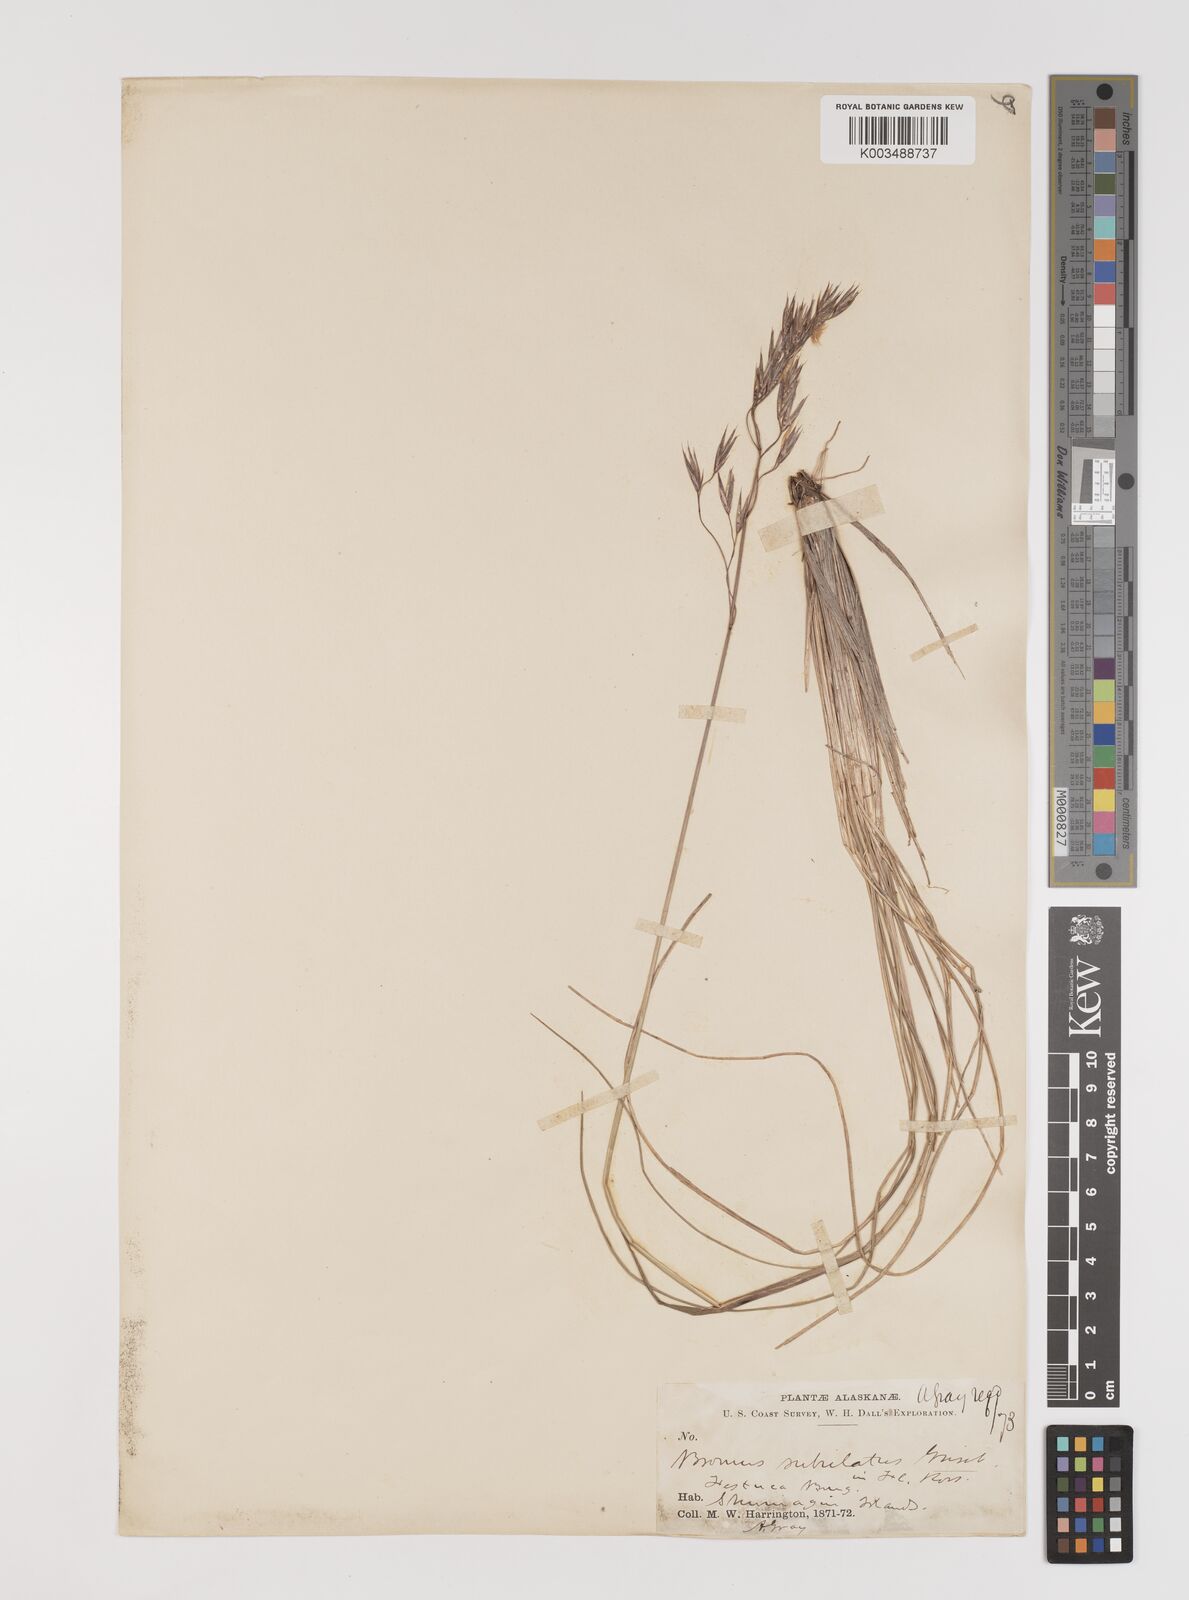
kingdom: Plantae
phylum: Tracheophyta
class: Liliopsida
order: Poales
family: Poaceae
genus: Bromus
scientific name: Bromus
